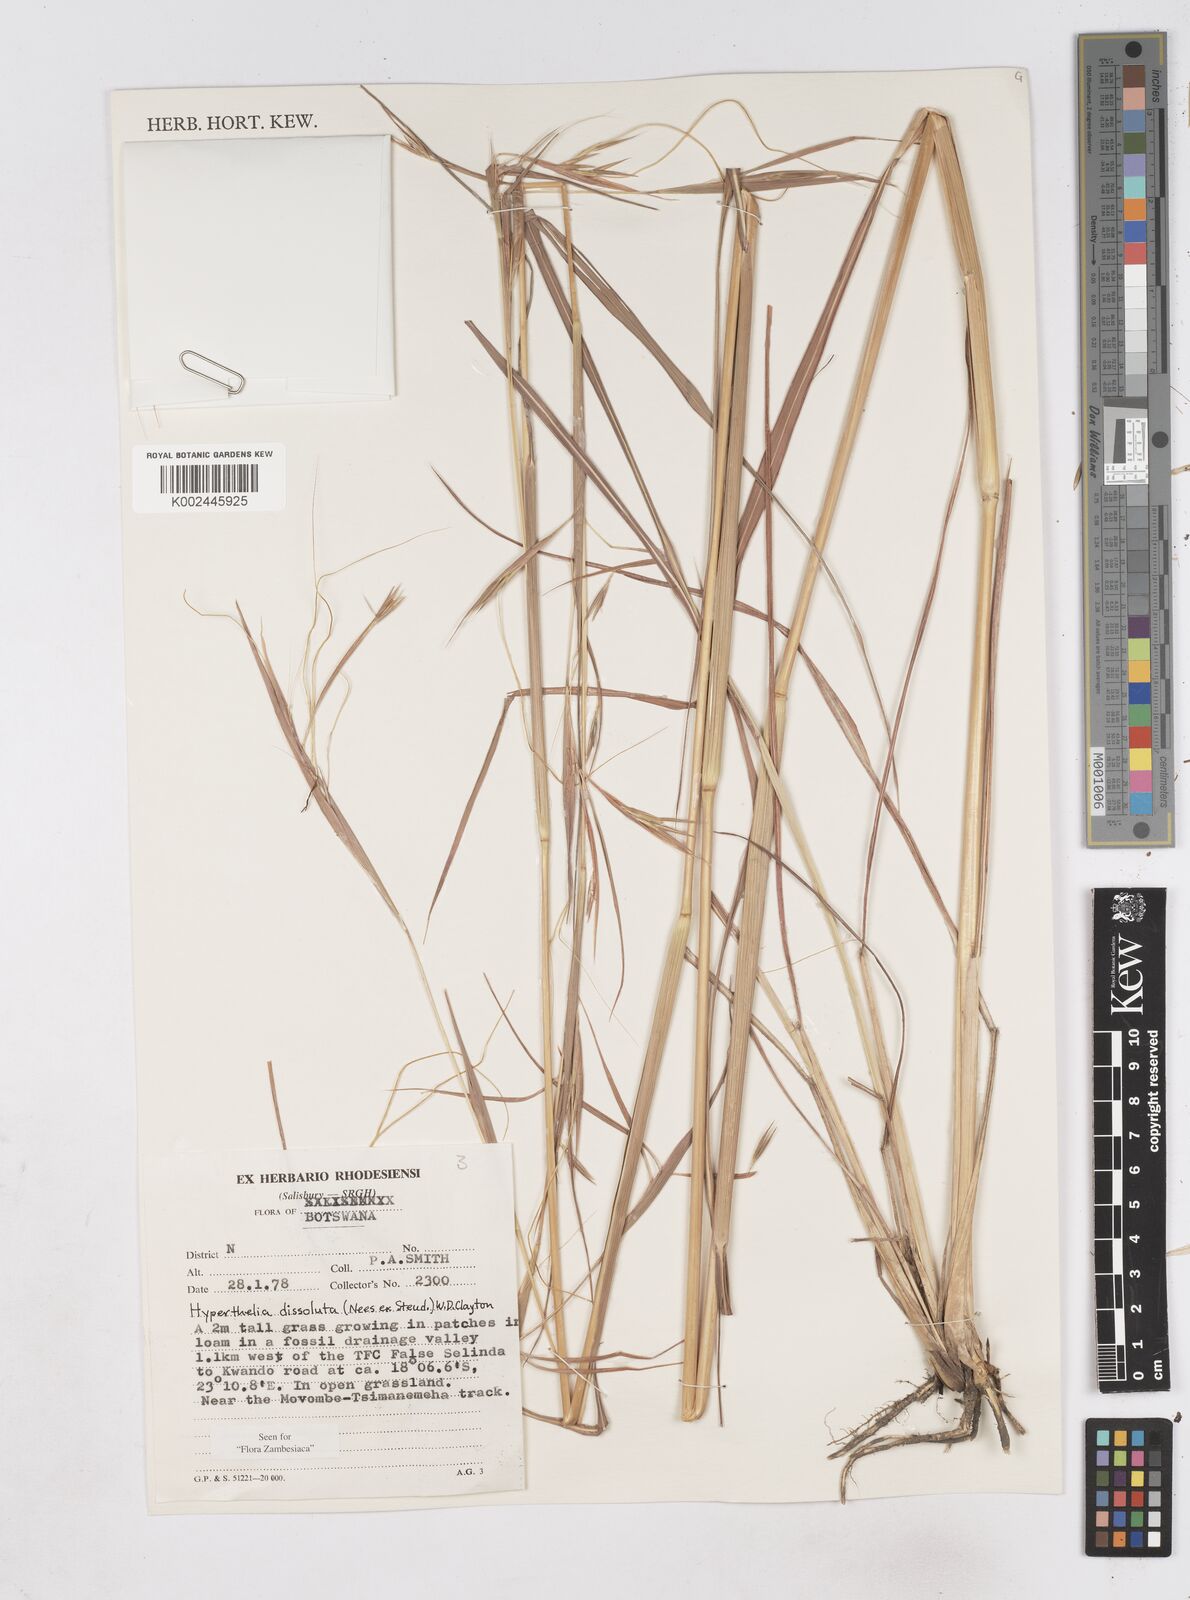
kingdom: Plantae
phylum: Tracheophyta
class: Liliopsida
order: Poales
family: Poaceae
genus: Hyperthelia
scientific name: Hyperthelia dissoluta
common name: Yellow thatching grass
